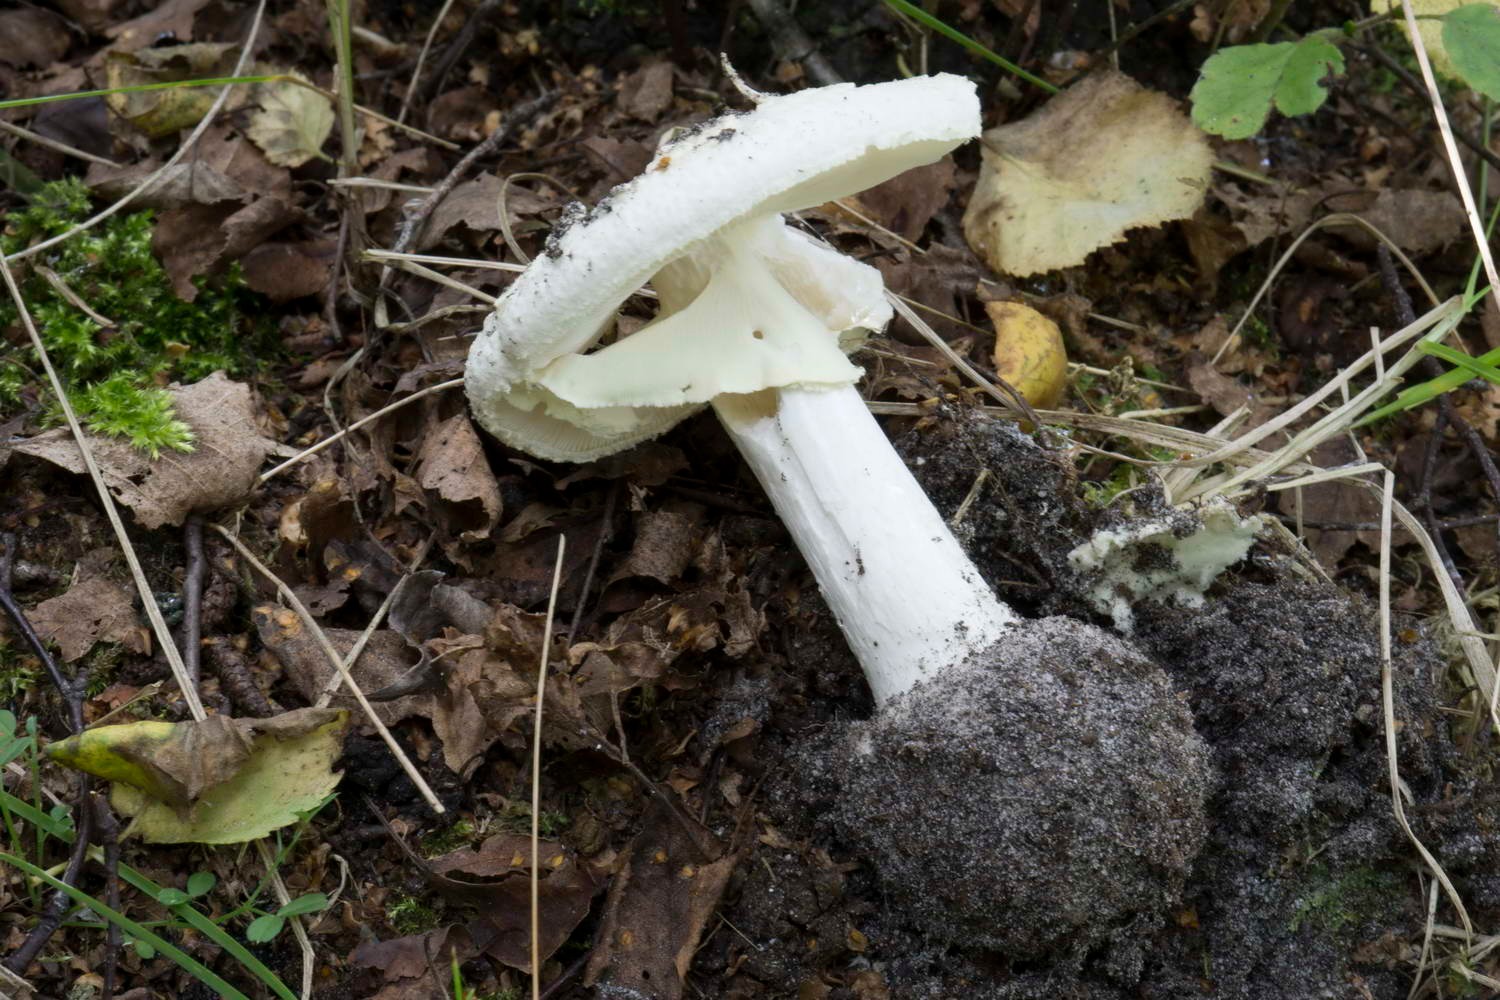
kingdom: Fungi
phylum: Basidiomycota
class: Agaricomycetes
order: Agaricales
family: Amanitaceae
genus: Amanita
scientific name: Amanita citrina
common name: False death-cap
